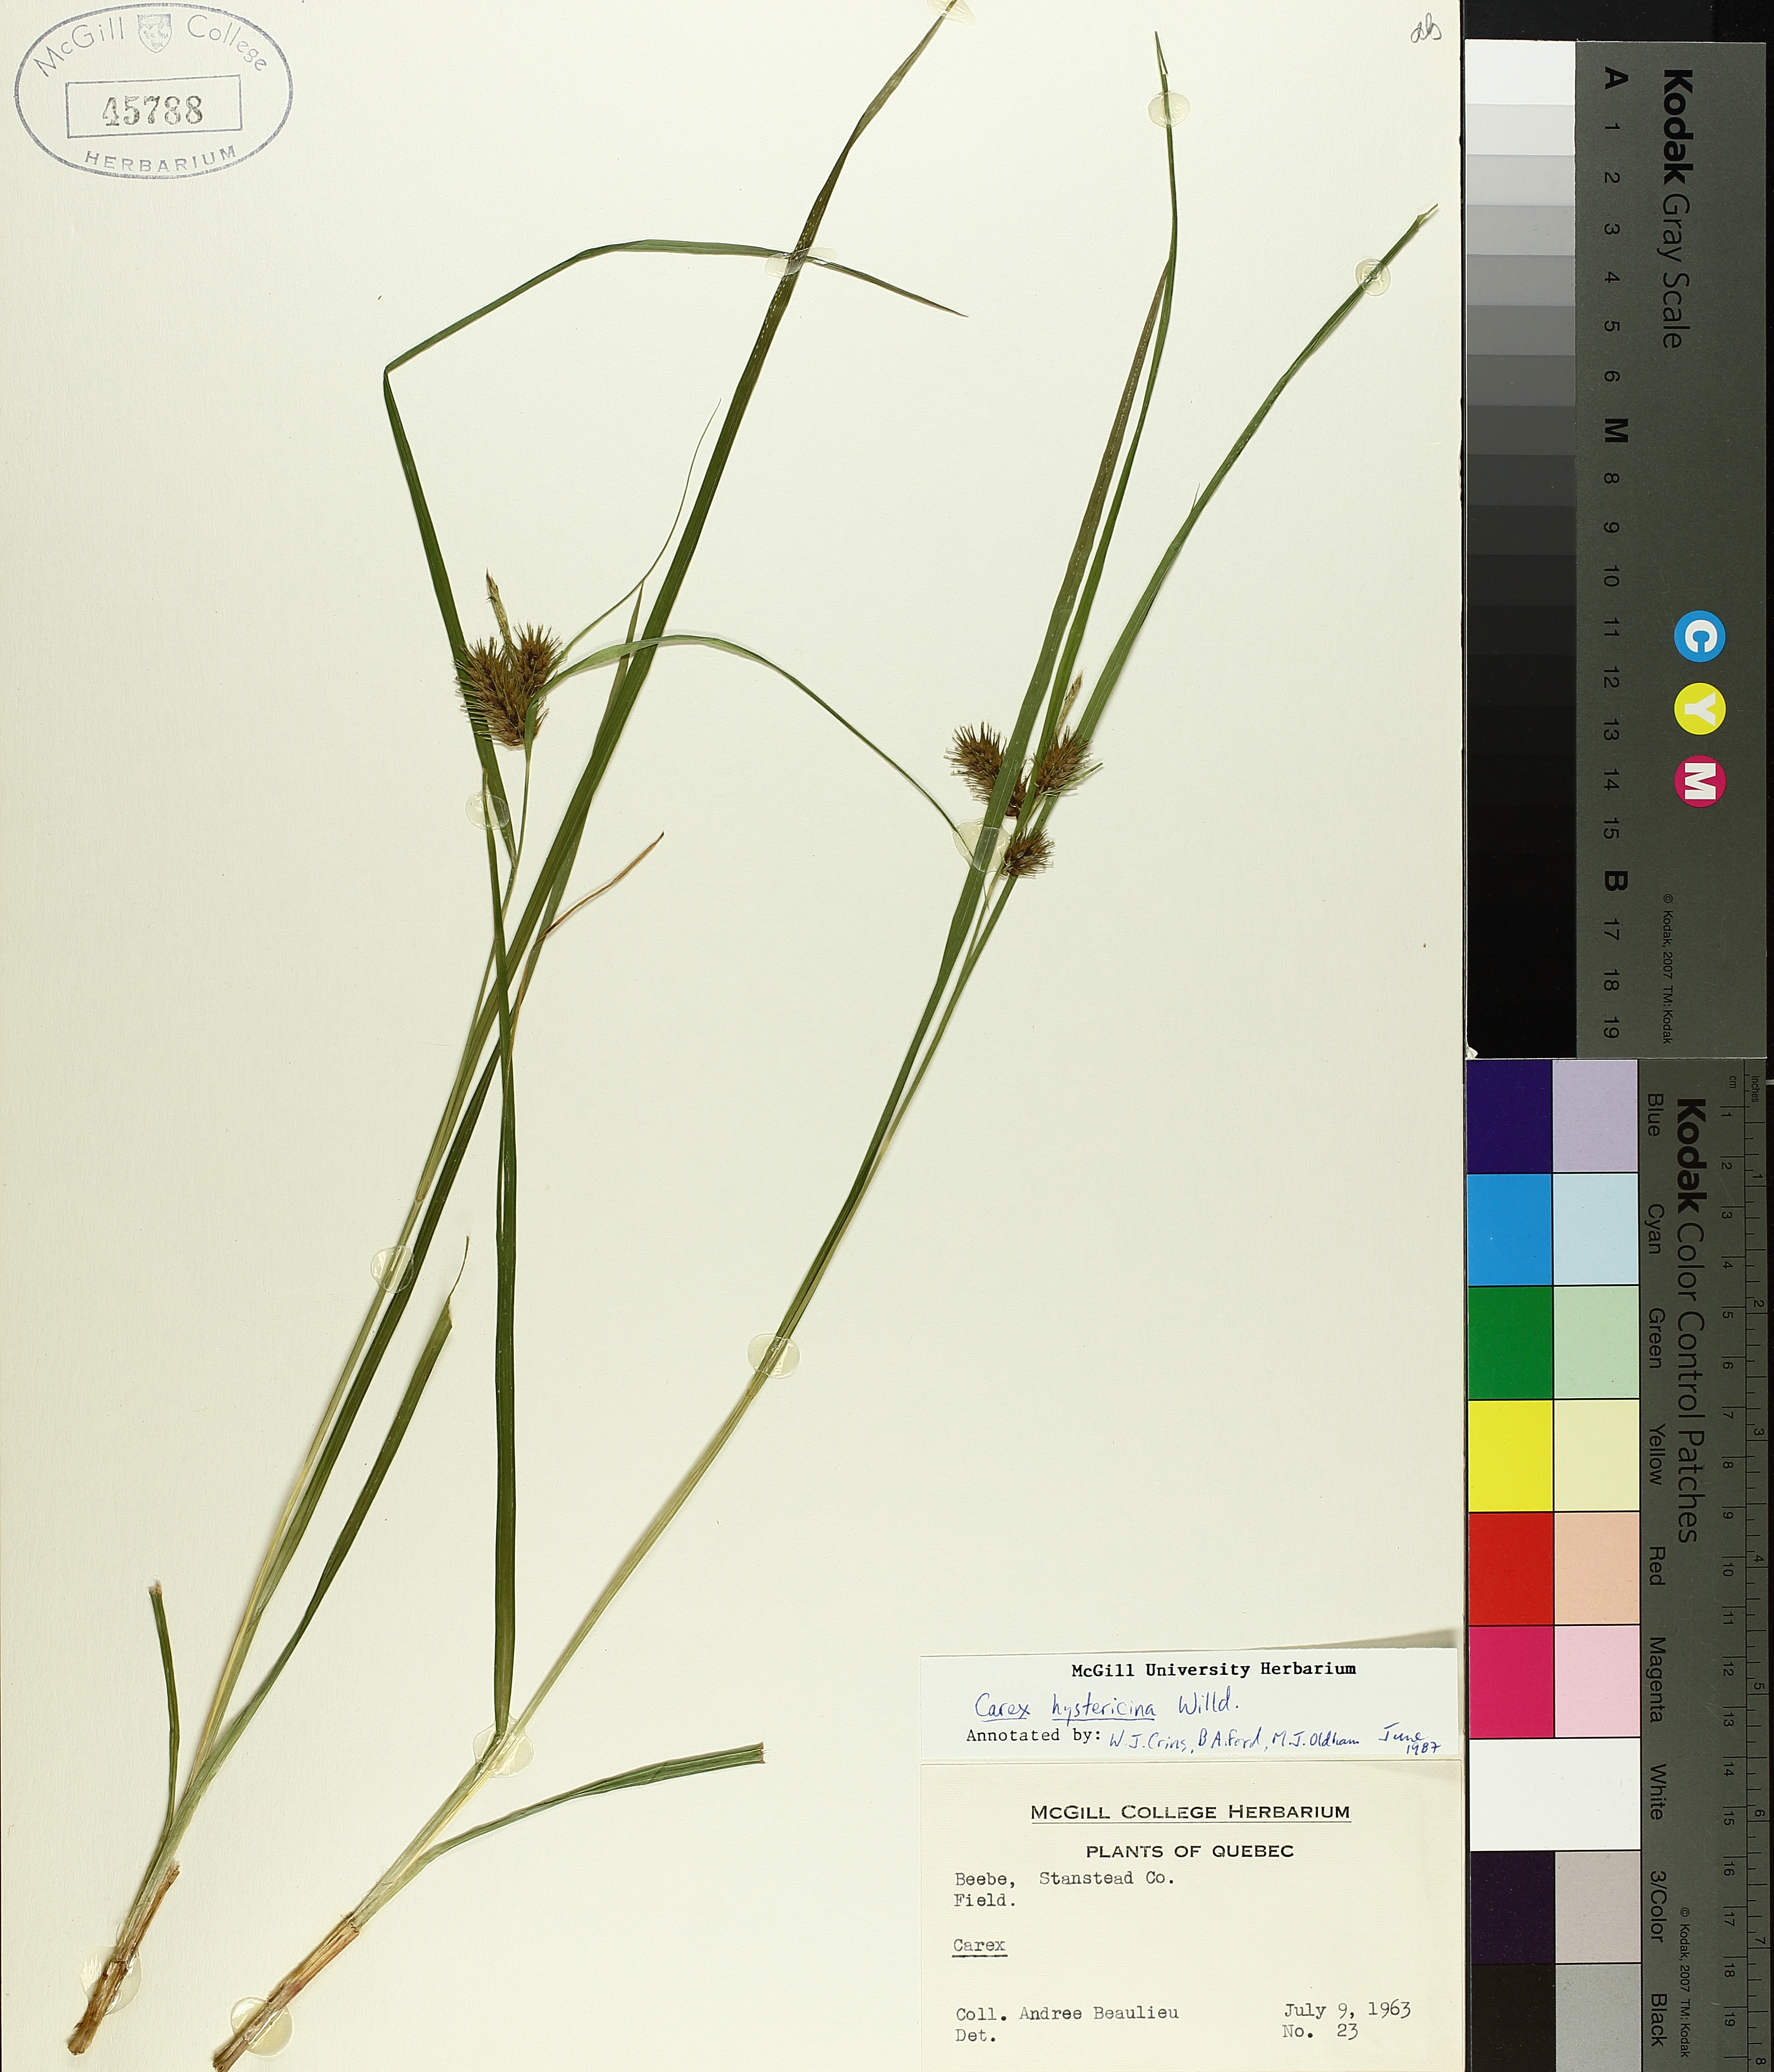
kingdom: Plantae
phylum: Tracheophyta
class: Liliopsida
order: Poales
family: Cyperaceae
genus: Carex
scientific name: Carex hystericina
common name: Bottlebrush sedge
